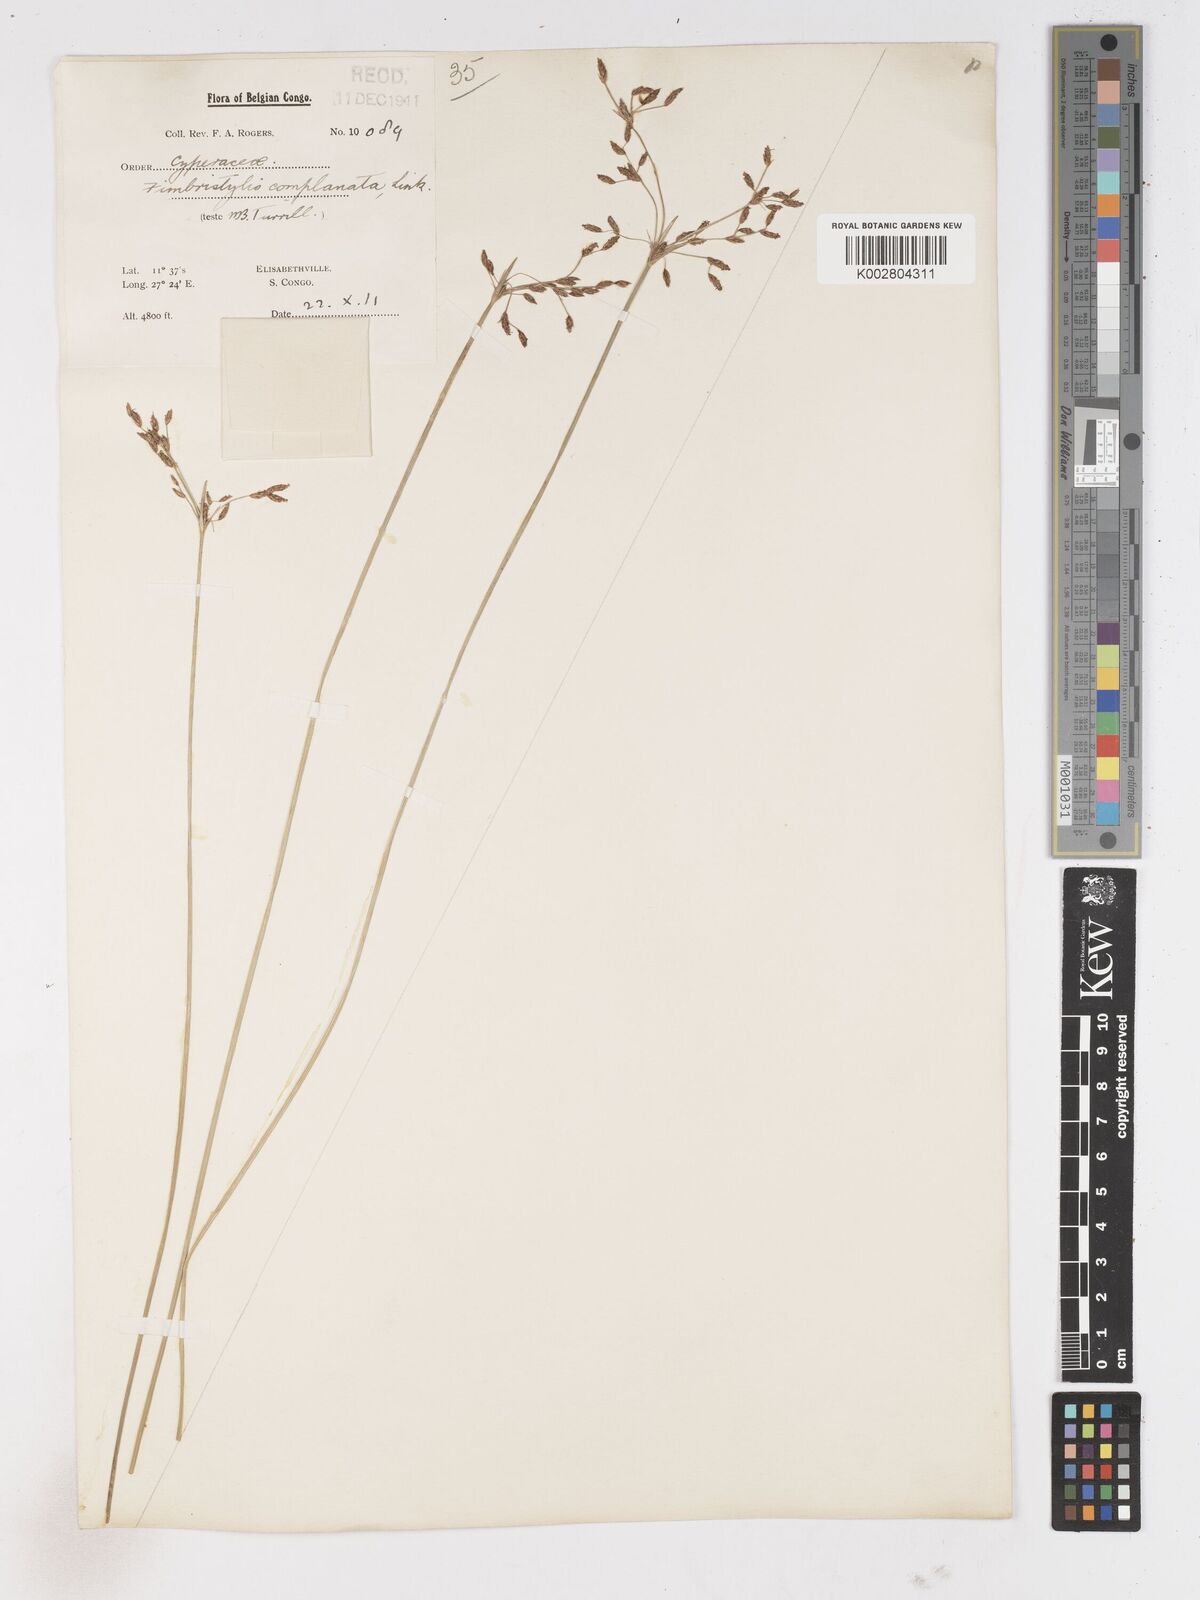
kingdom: Plantae
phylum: Tracheophyta
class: Liliopsida
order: Poales
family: Cyperaceae
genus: Fimbristylis
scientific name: Fimbristylis
